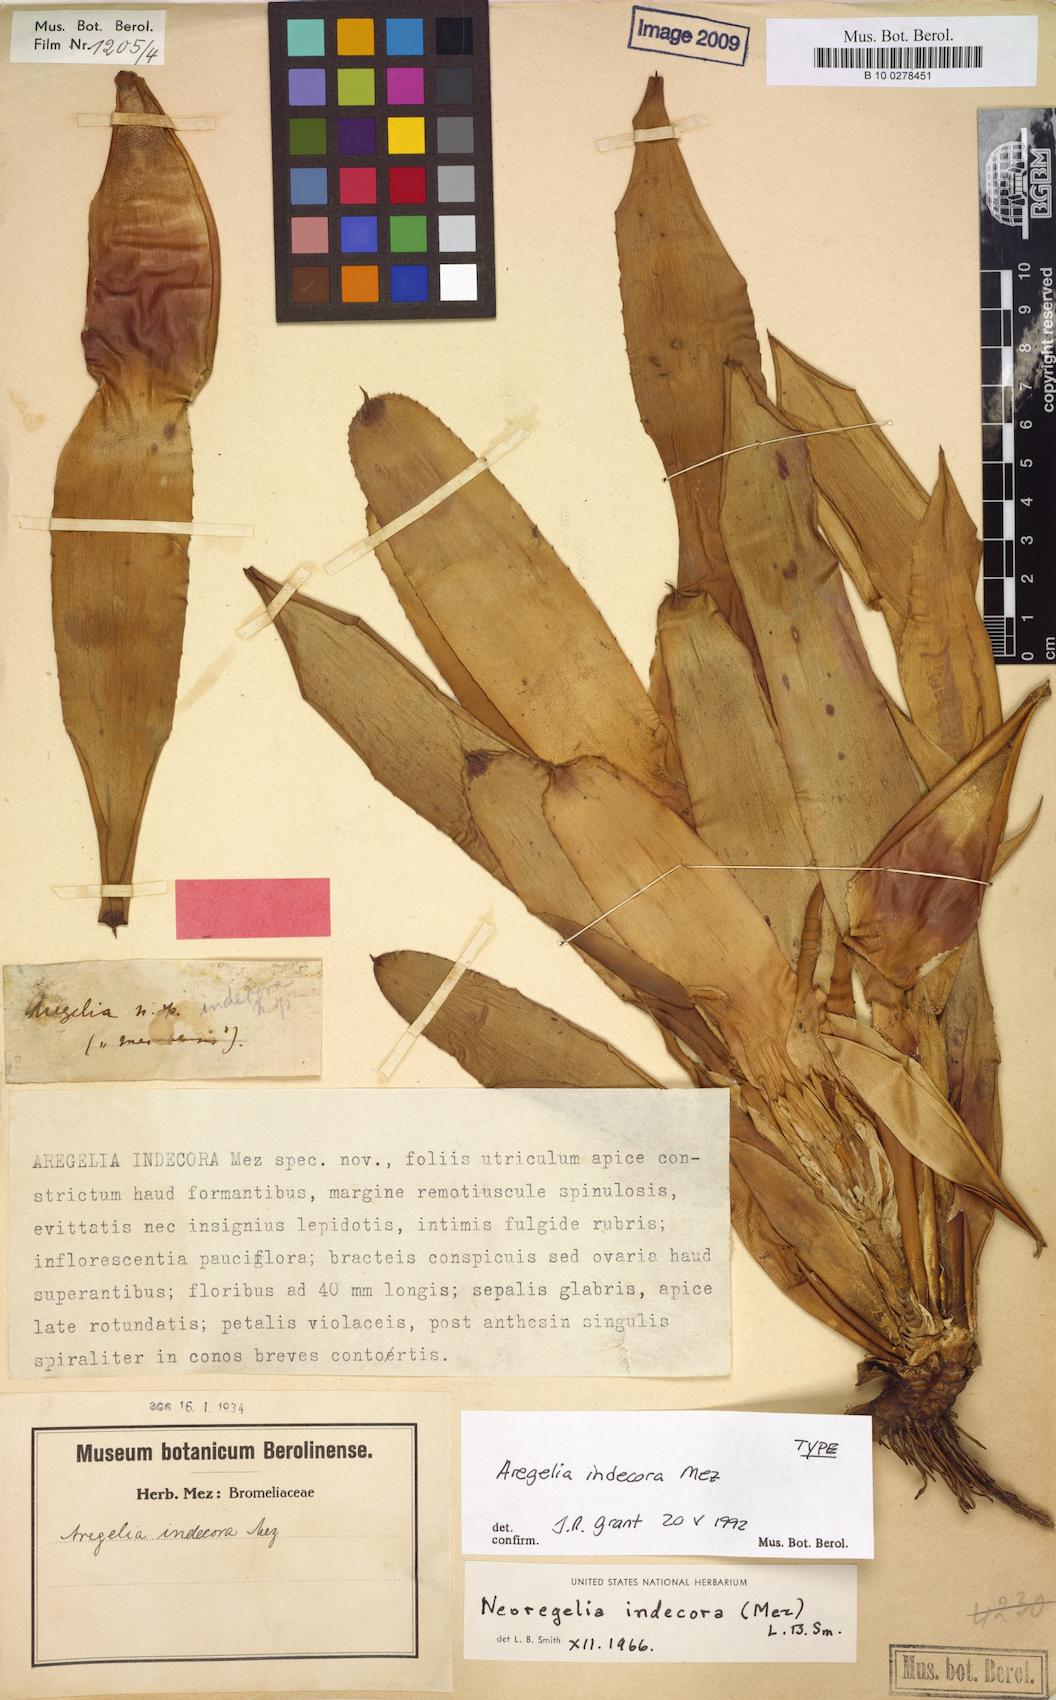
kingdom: Plantae
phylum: Tracheophyta
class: Liliopsida
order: Poales
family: Bromeliaceae
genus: Neoregelia
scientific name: Neoregelia indecora
